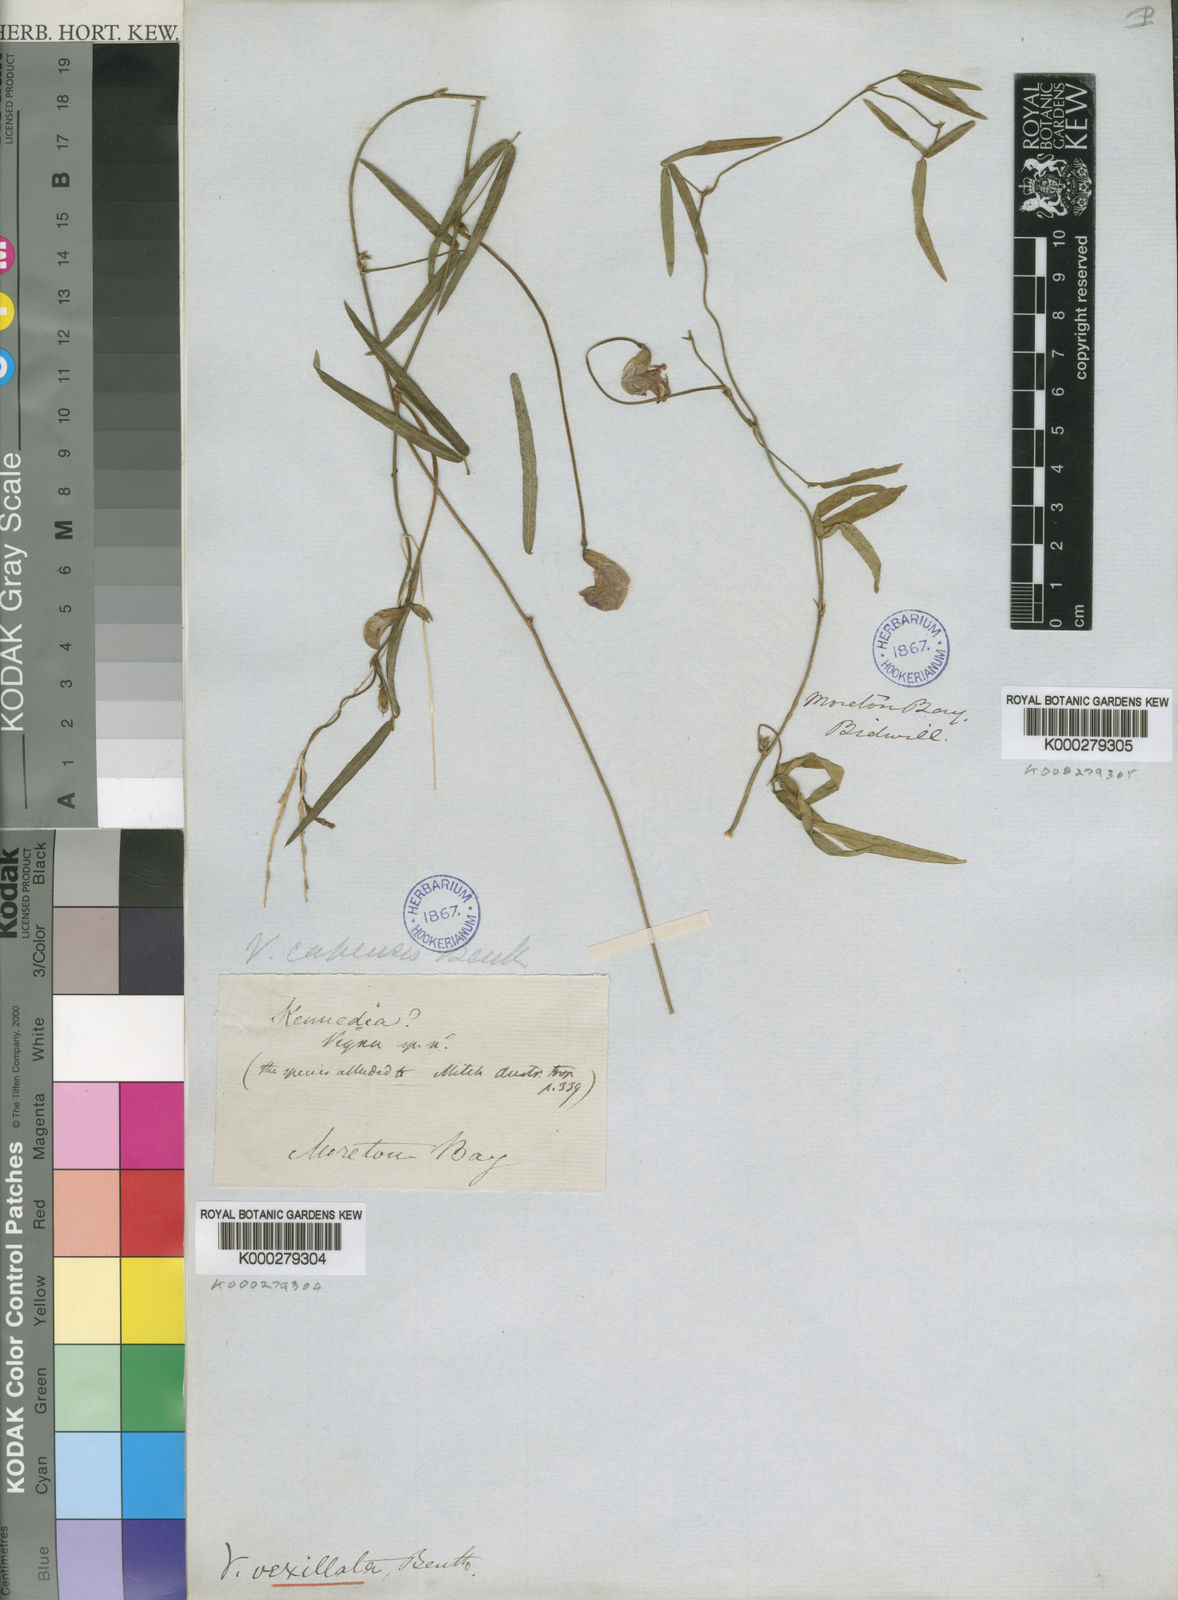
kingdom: Plantae
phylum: Tracheophyta
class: Magnoliopsida
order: Fabales
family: Fabaceae
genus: Vigna
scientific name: Vigna vexillata
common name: Zombi pea
